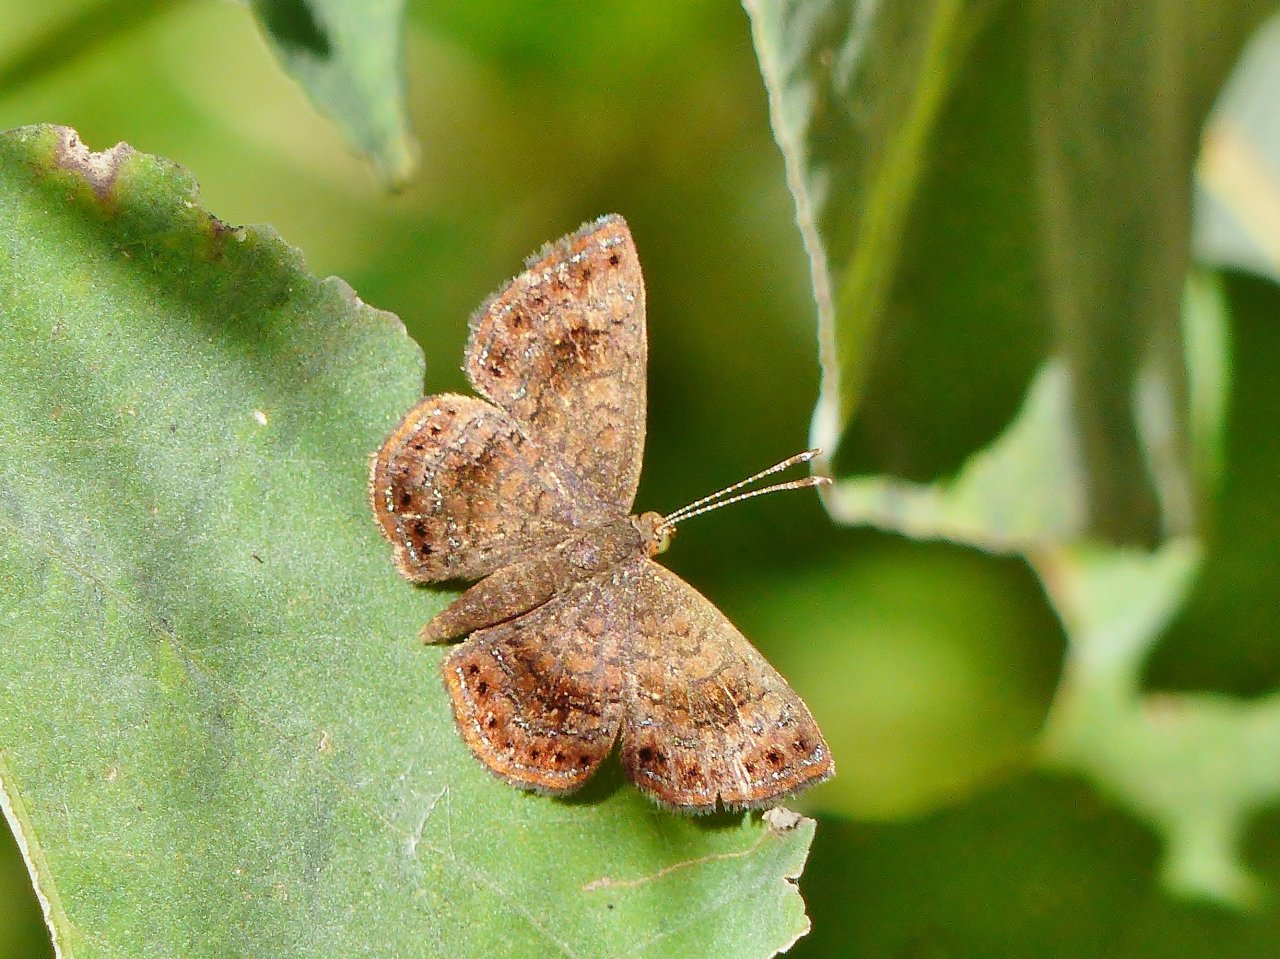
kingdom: Animalia
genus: Calephelis
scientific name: Calephelis perditalis
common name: Rounded Metalmark
